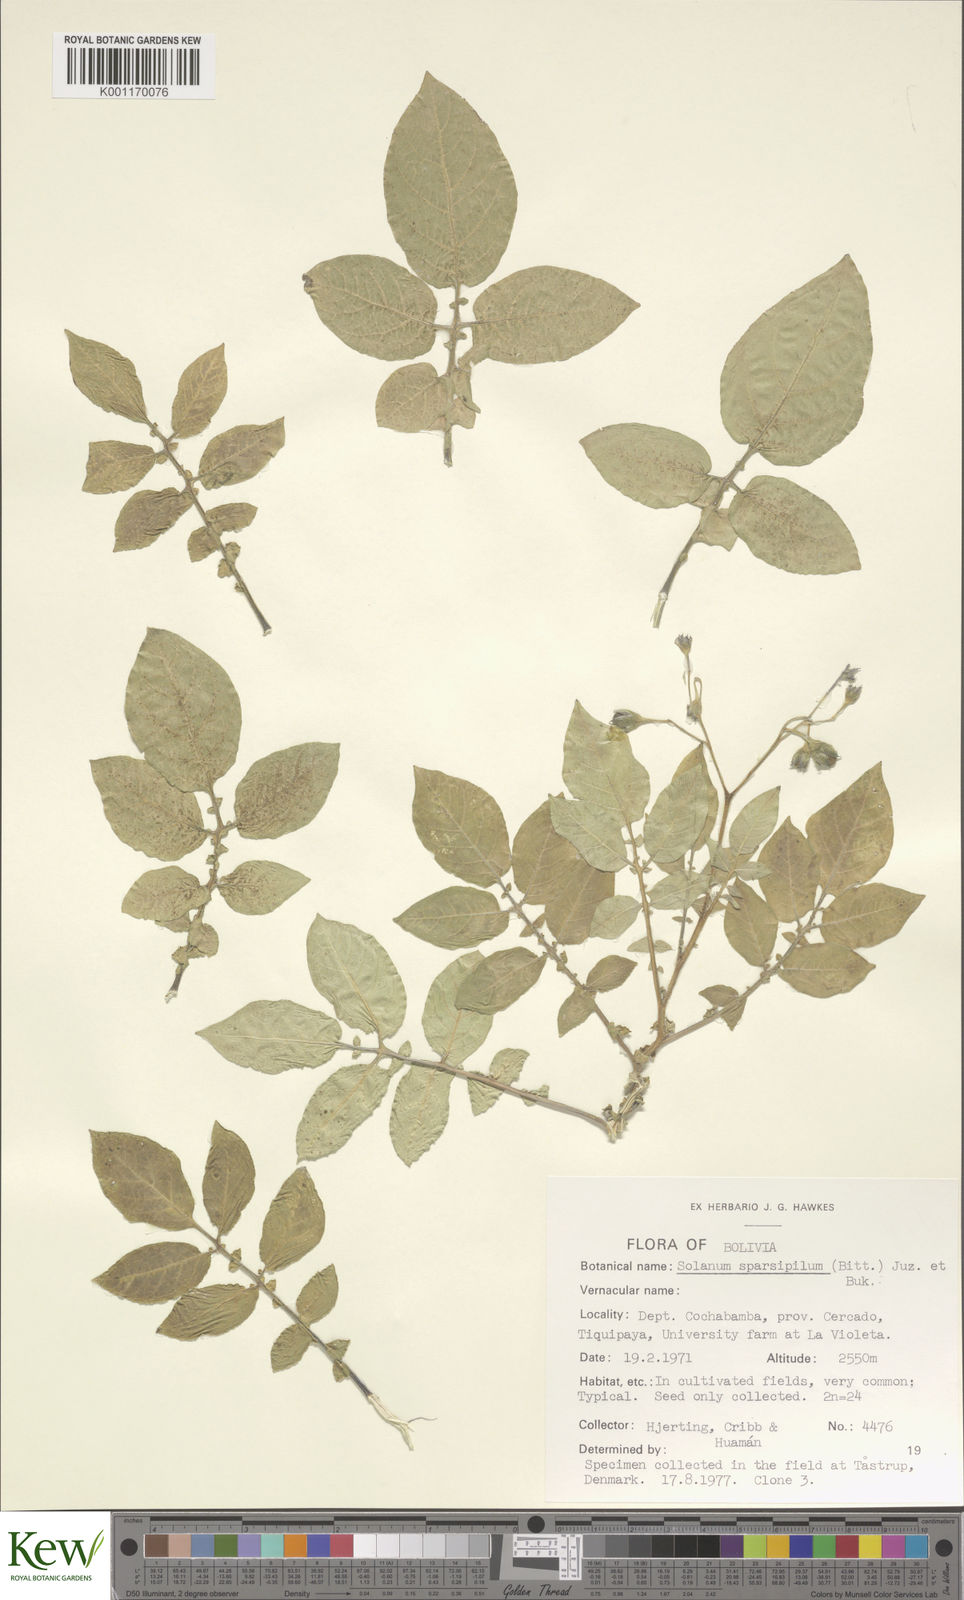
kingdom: Plantae
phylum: Tracheophyta
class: Magnoliopsida
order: Solanales
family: Solanaceae
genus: Solanum
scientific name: Solanum brevicaule
